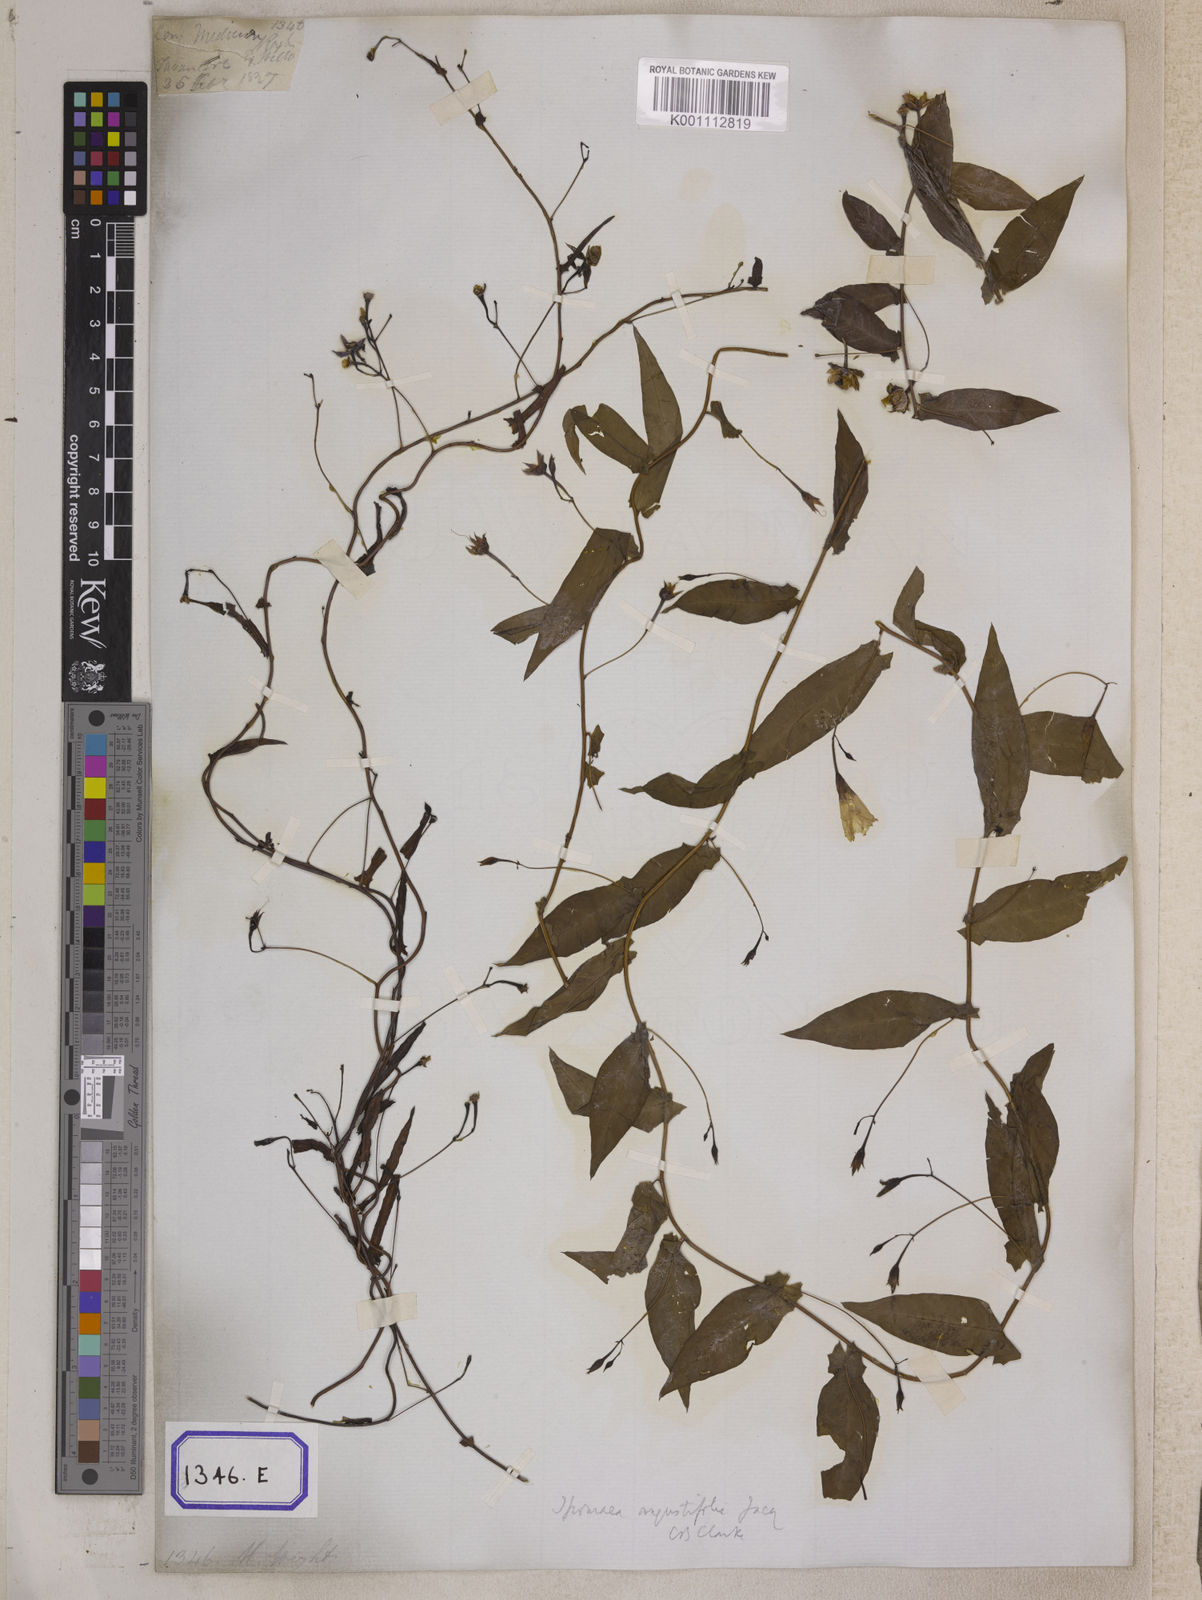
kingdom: Plantae
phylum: Tracheophyta
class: Magnoliopsida
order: Solanales
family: Convolvulaceae
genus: Xenostegia
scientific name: Xenostegia medium
